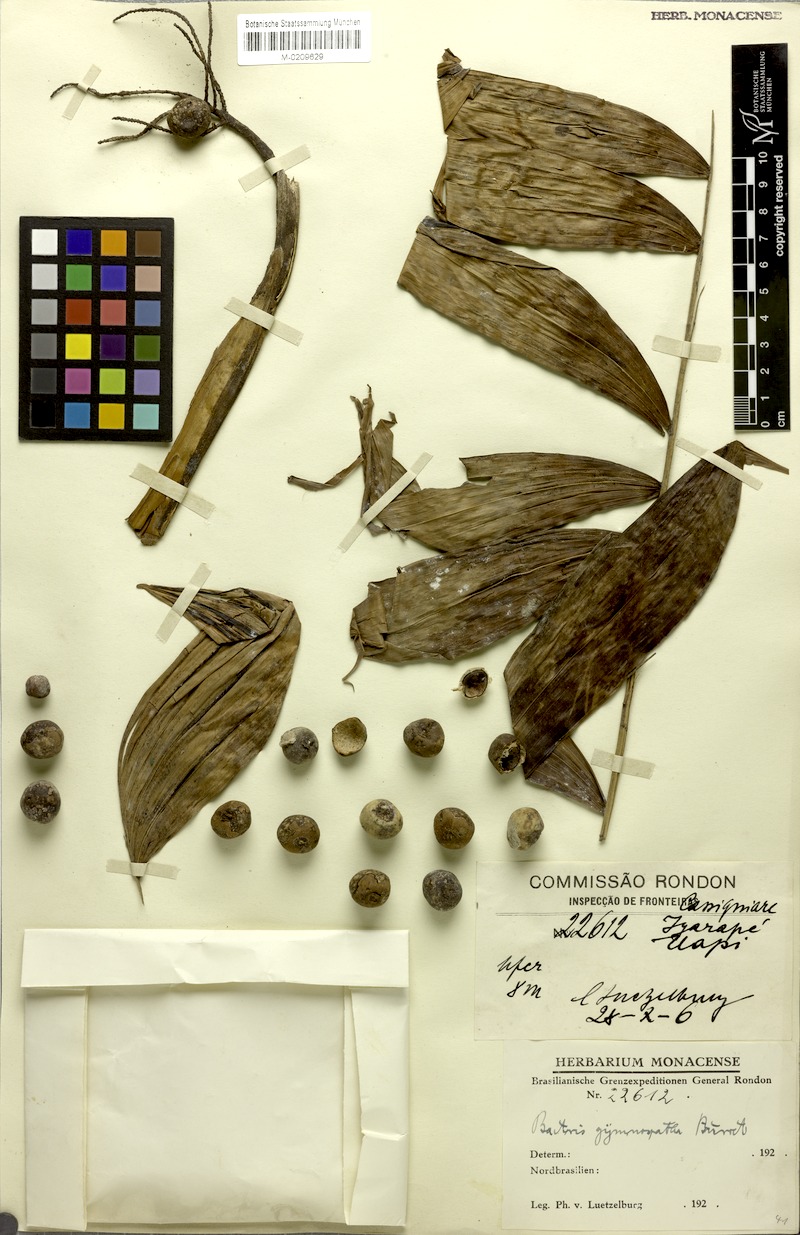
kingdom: Plantae
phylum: Tracheophyta
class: Liliopsida
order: Arecales
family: Arecaceae
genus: Bactris
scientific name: Bactris maraja
